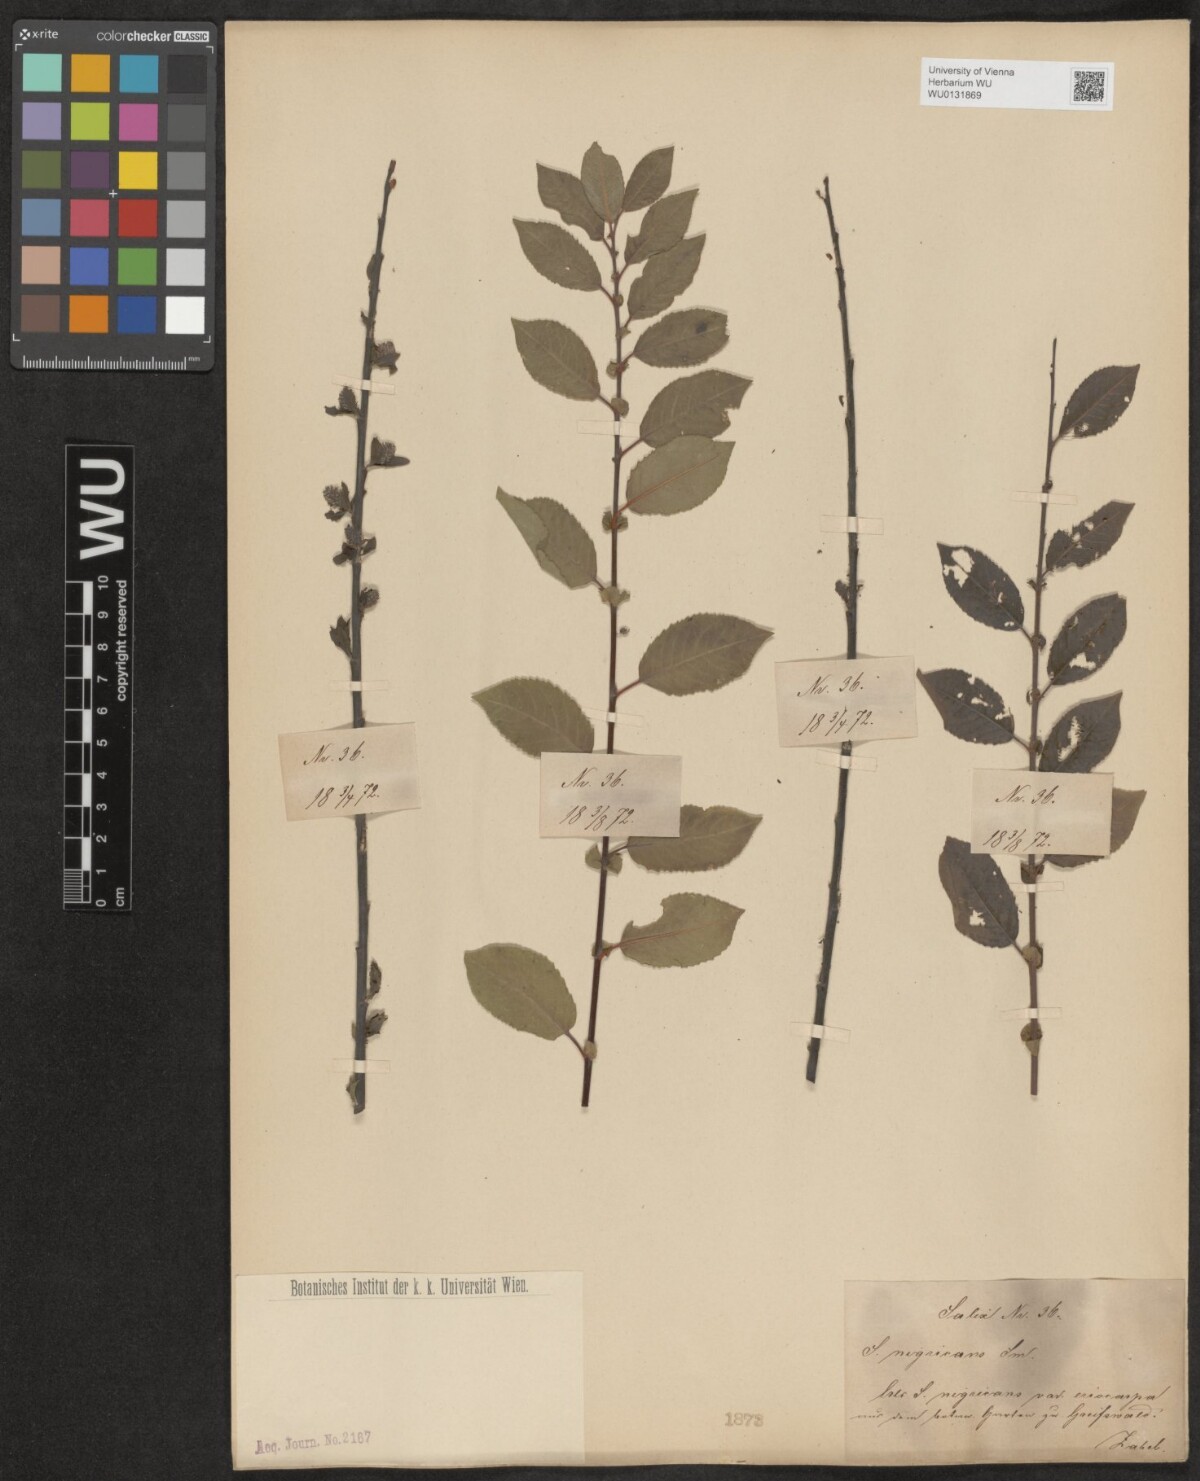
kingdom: Plantae
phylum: Tracheophyta
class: Magnoliopsida
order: Malpighiales
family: Salicaceae
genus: Salix
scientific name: Salix myrsinifolia
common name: Dark-leaved willow
